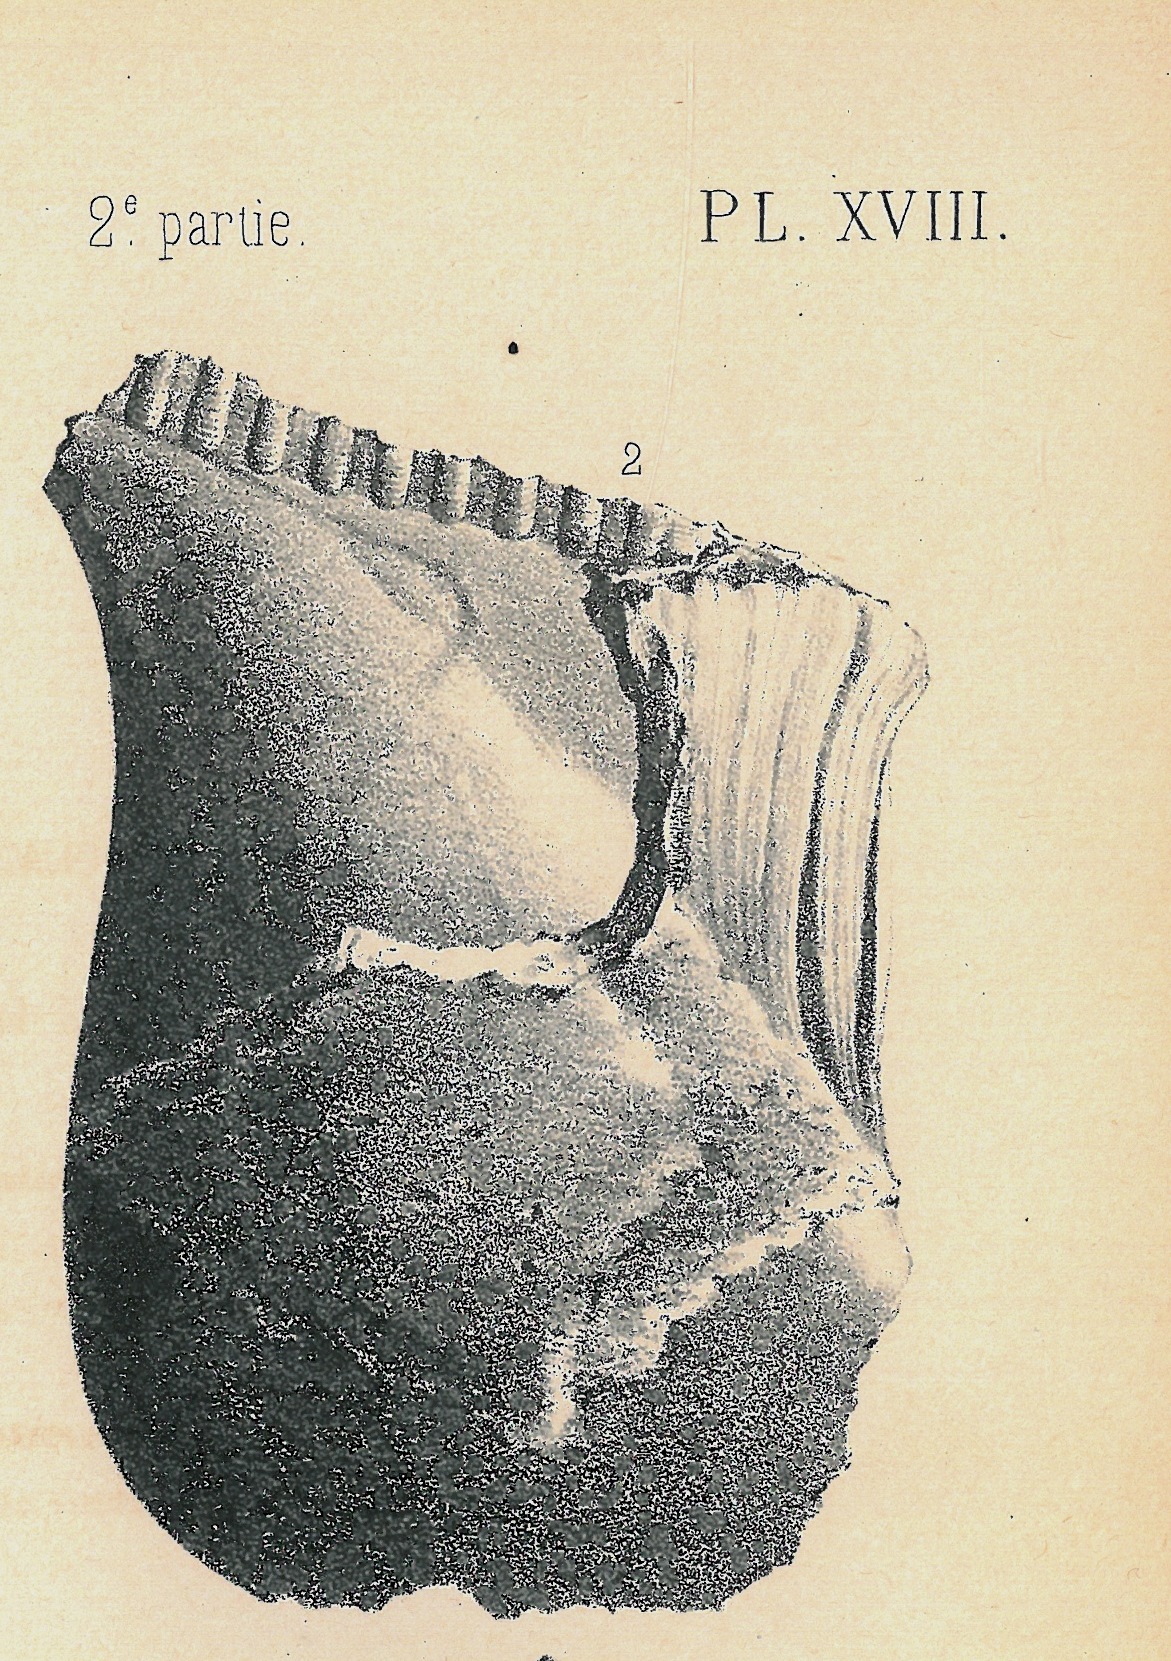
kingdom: Animalia
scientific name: Animalia
